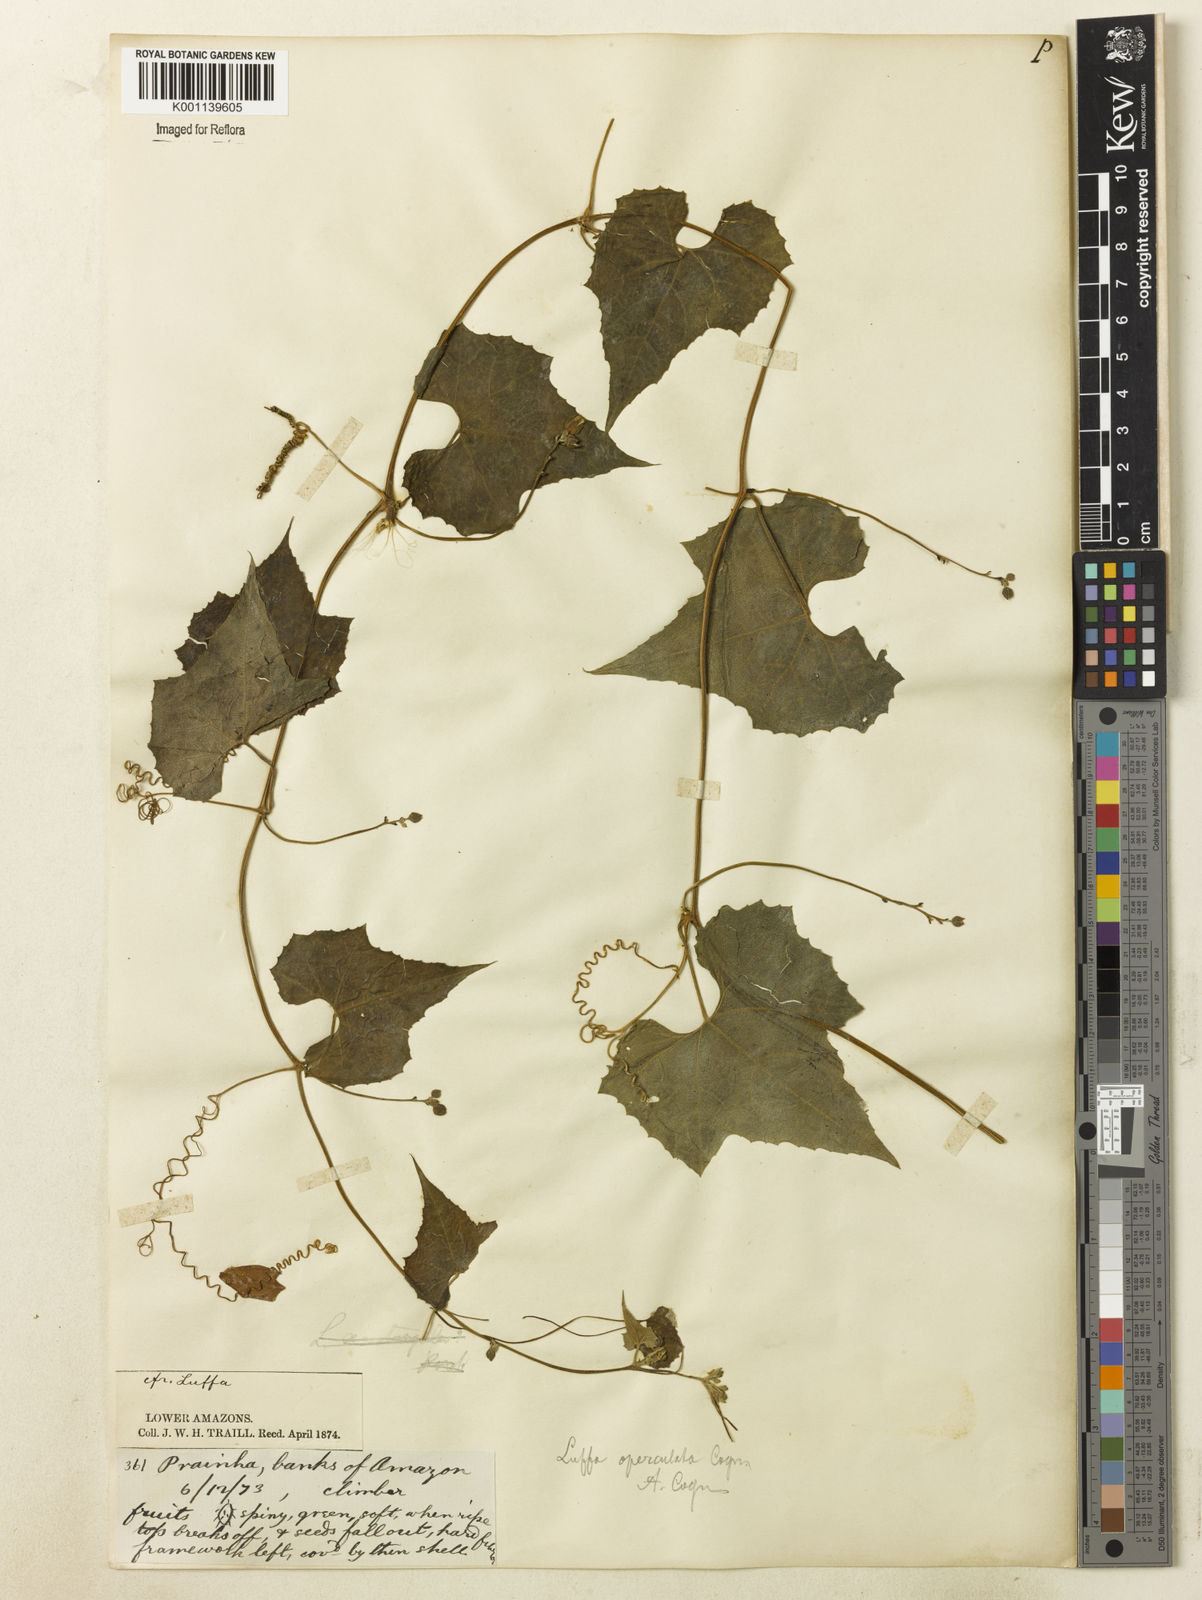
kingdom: Plantae
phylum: Tracheophyta
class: Magnoliopsida
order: Cucurbitales
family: Cucurbitaceae
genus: Luffa
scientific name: Luffa operculata
